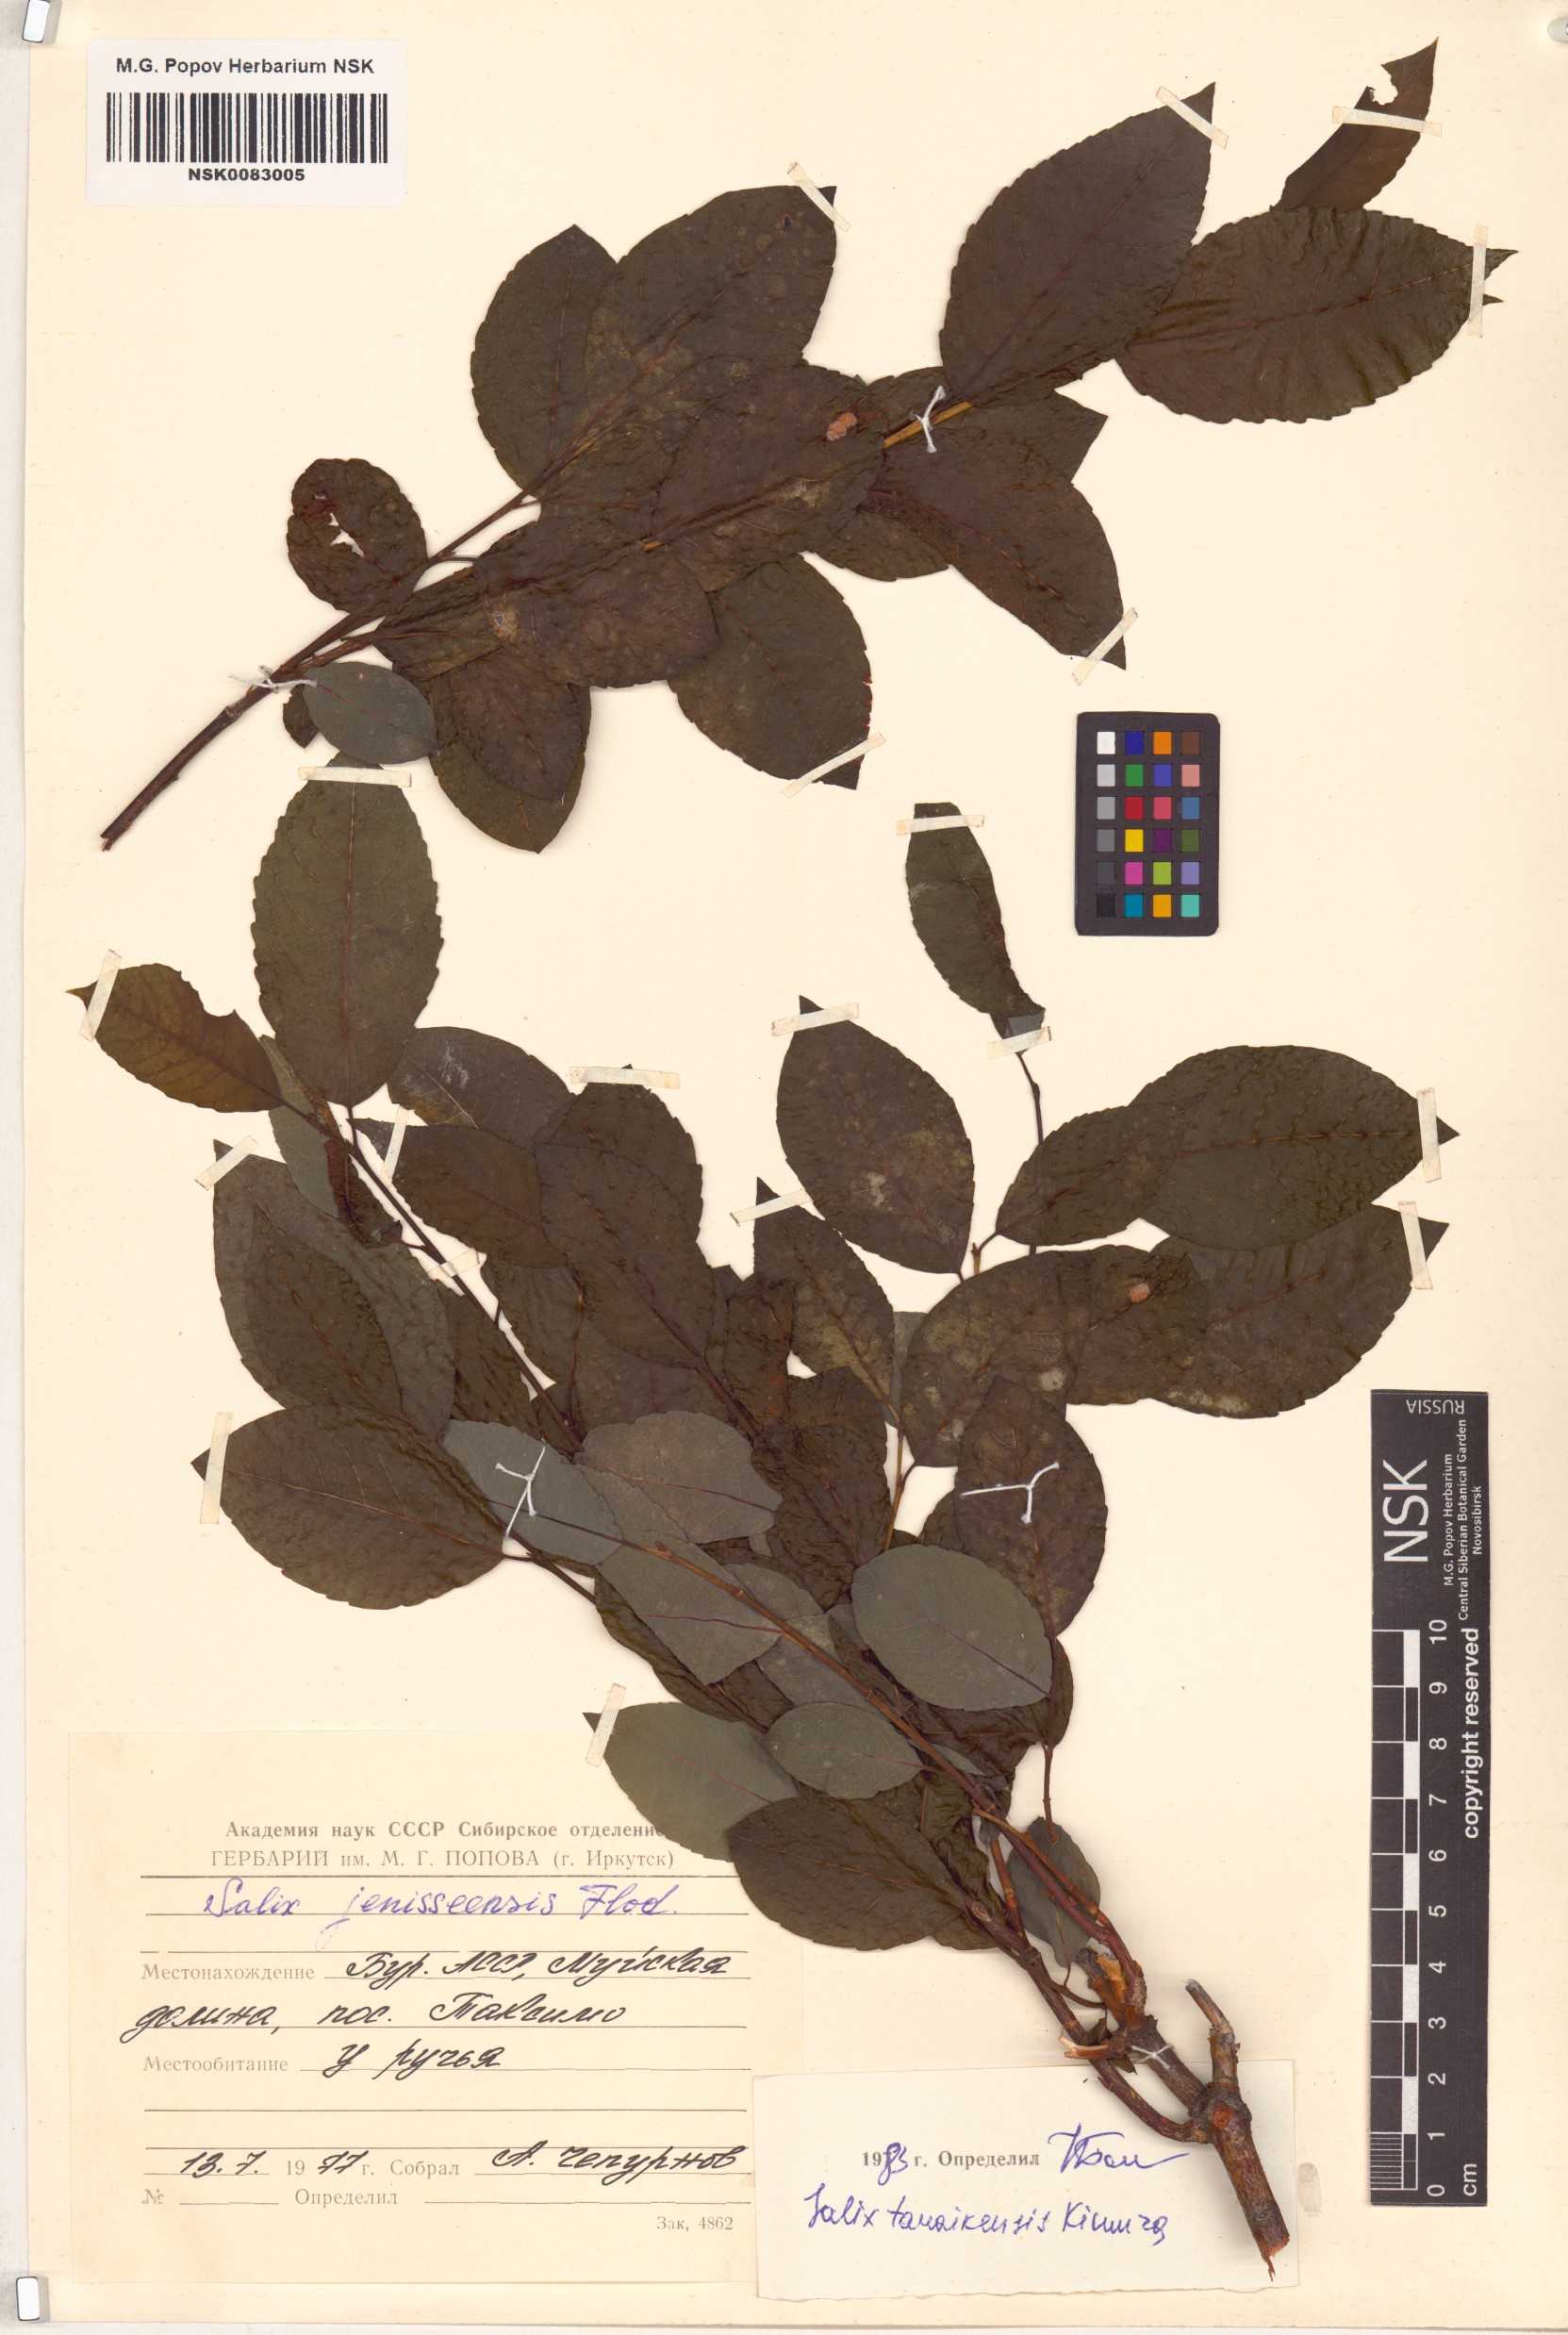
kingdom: Plantae
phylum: Tracheophyta
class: Magnoliopsida
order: Malpighiales
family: Salicaceae
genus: Salix
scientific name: Salix taraikensis
